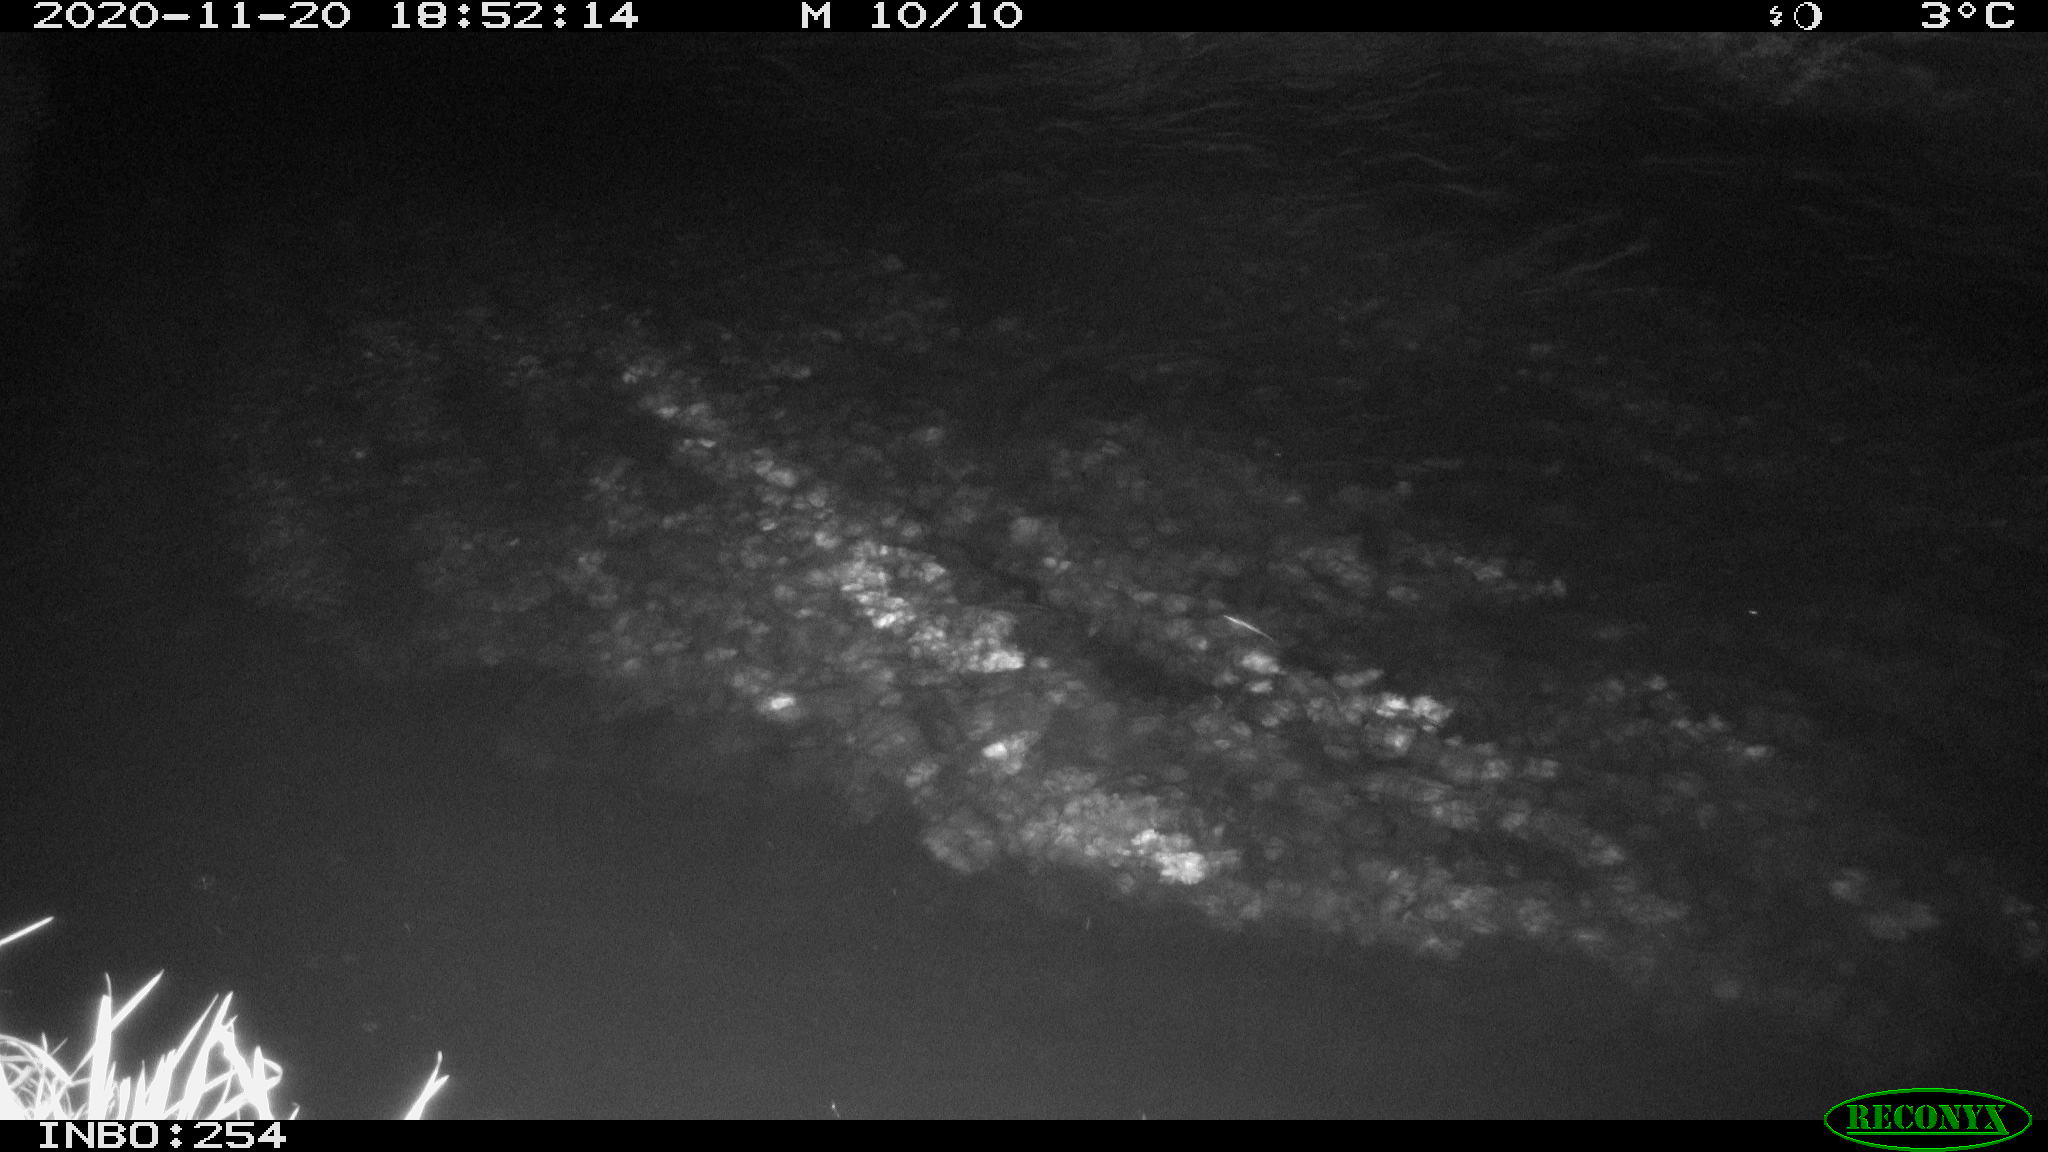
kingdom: Animalia
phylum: Chordata
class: Aves
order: Anseriformes
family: Anatidae
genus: Anas
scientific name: Anas platyrhynchos
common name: Mallard
